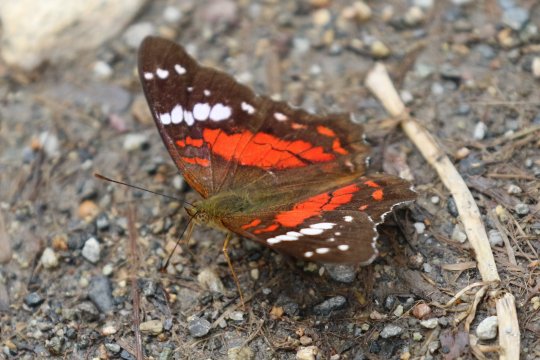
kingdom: Animalia
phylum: Arthropoda
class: Insecta
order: Lepidoptera
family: Nymphalidae
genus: Anartia
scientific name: Anartia amathea
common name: Red Peacock
